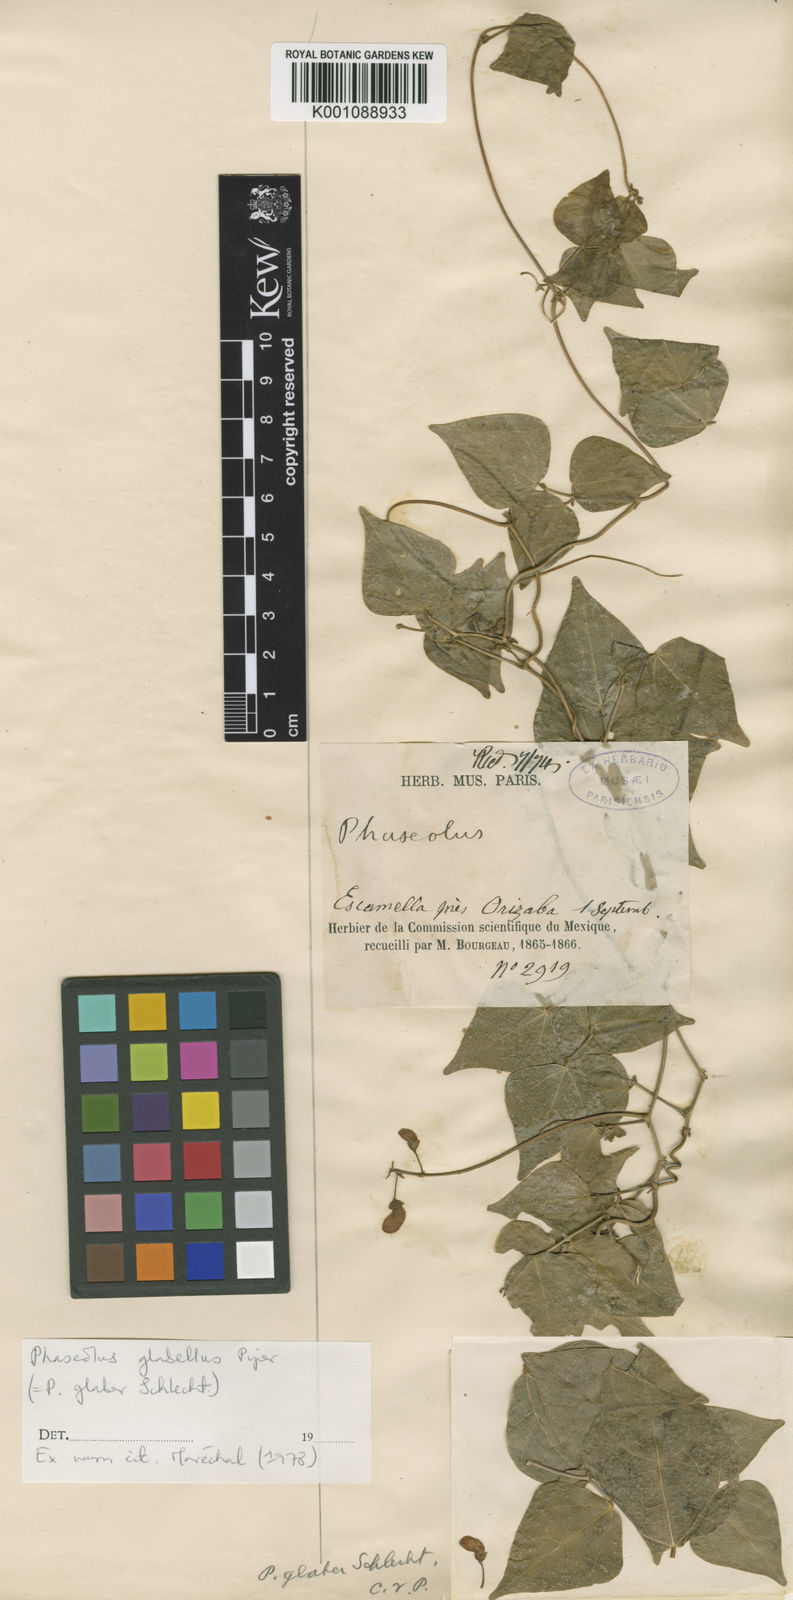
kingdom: Plantae
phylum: Tracheophyta
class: Magnoliopsida
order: Fabales
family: Fabaceae
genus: Phaseolus
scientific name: Phaseolus glabellus
